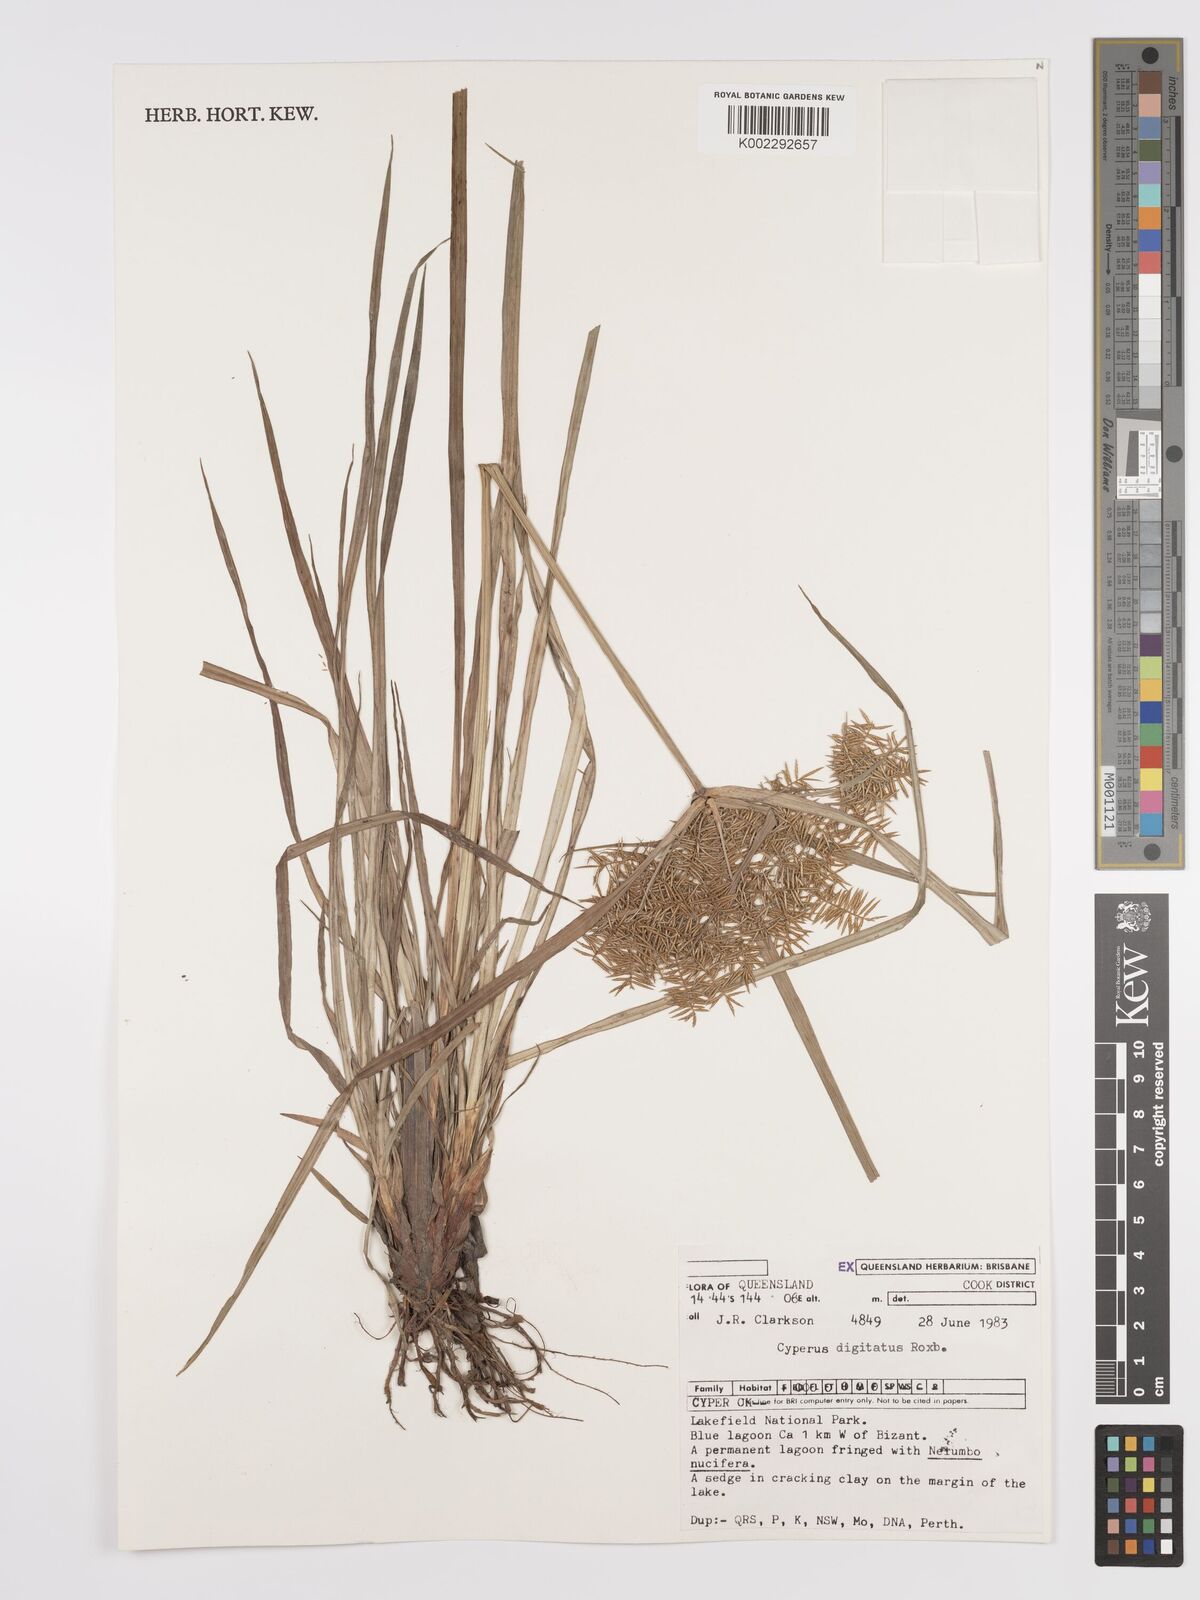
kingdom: Plantae
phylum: Tracheophyta
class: Liliopsida
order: Poales
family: Cyperaceae
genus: Cyperus
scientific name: Cyperus digitatus
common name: Finger flatsedge
